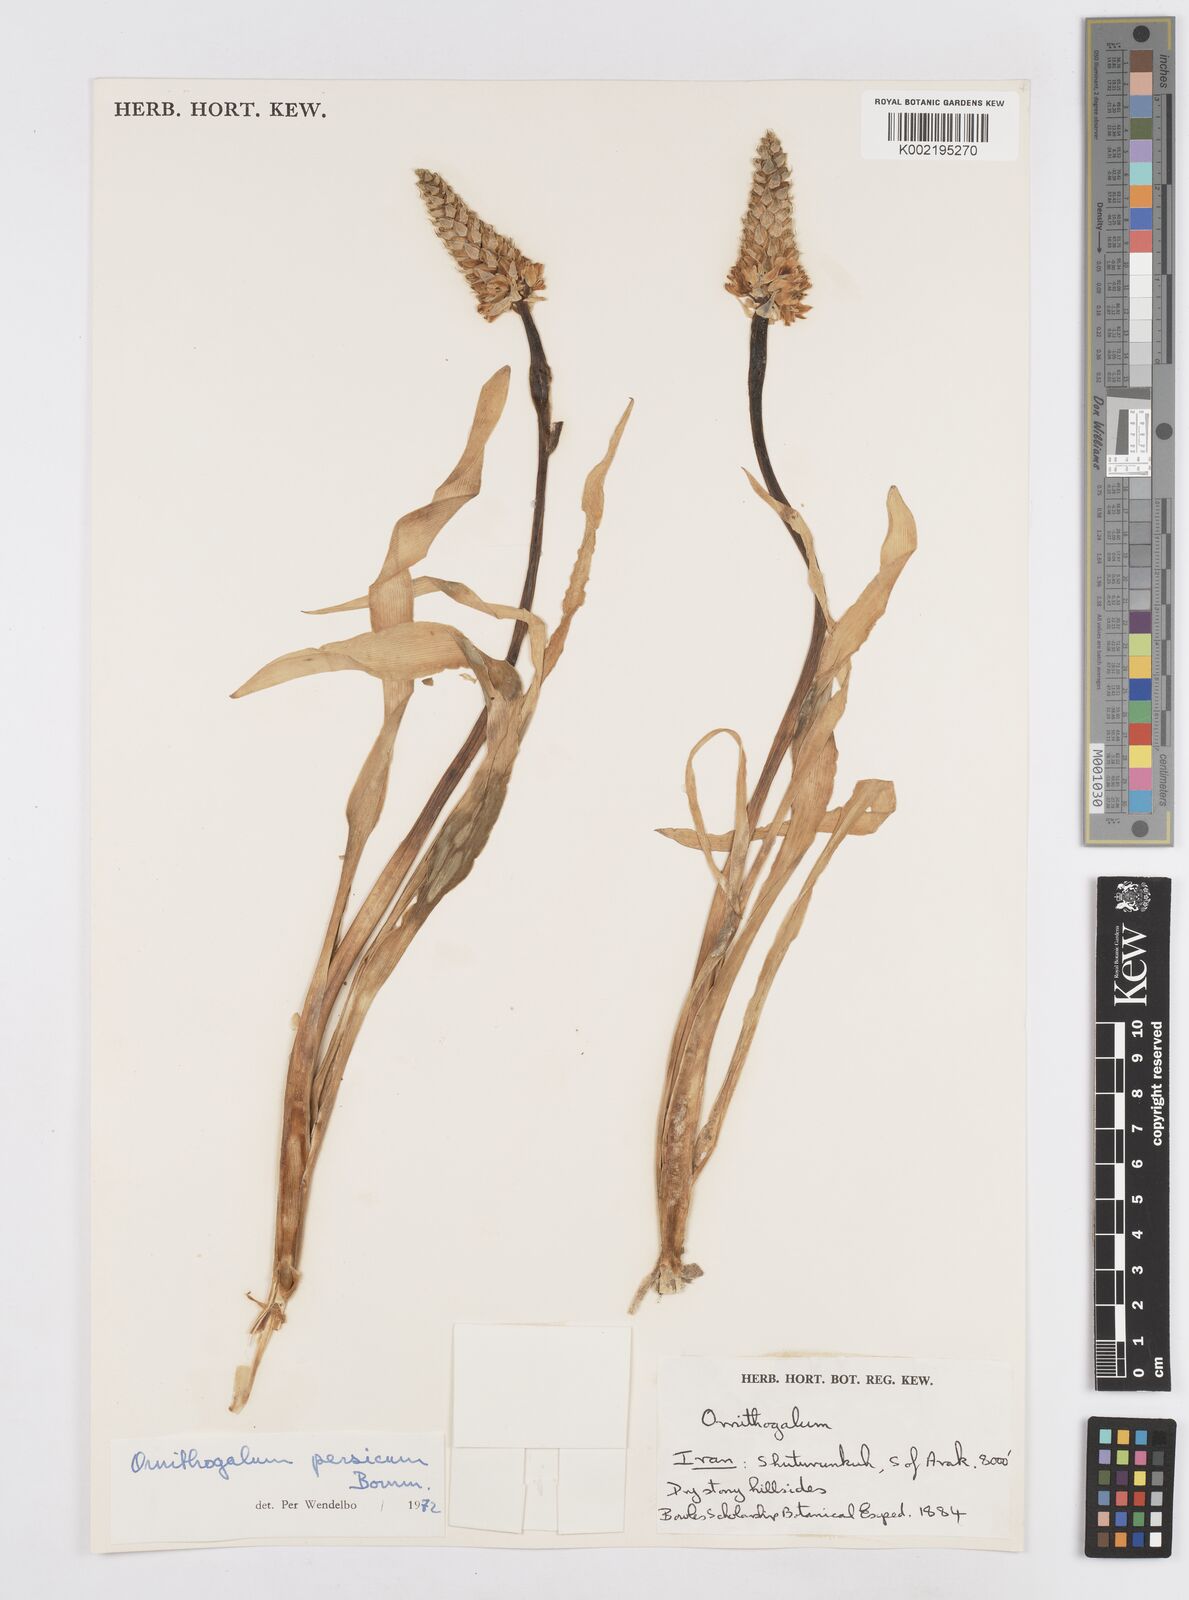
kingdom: Plantae
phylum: Tracheophyta
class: Liliopsida
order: Asparagales
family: Asparagaceae
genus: Ornithogalum
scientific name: Ornithogalum persicum
